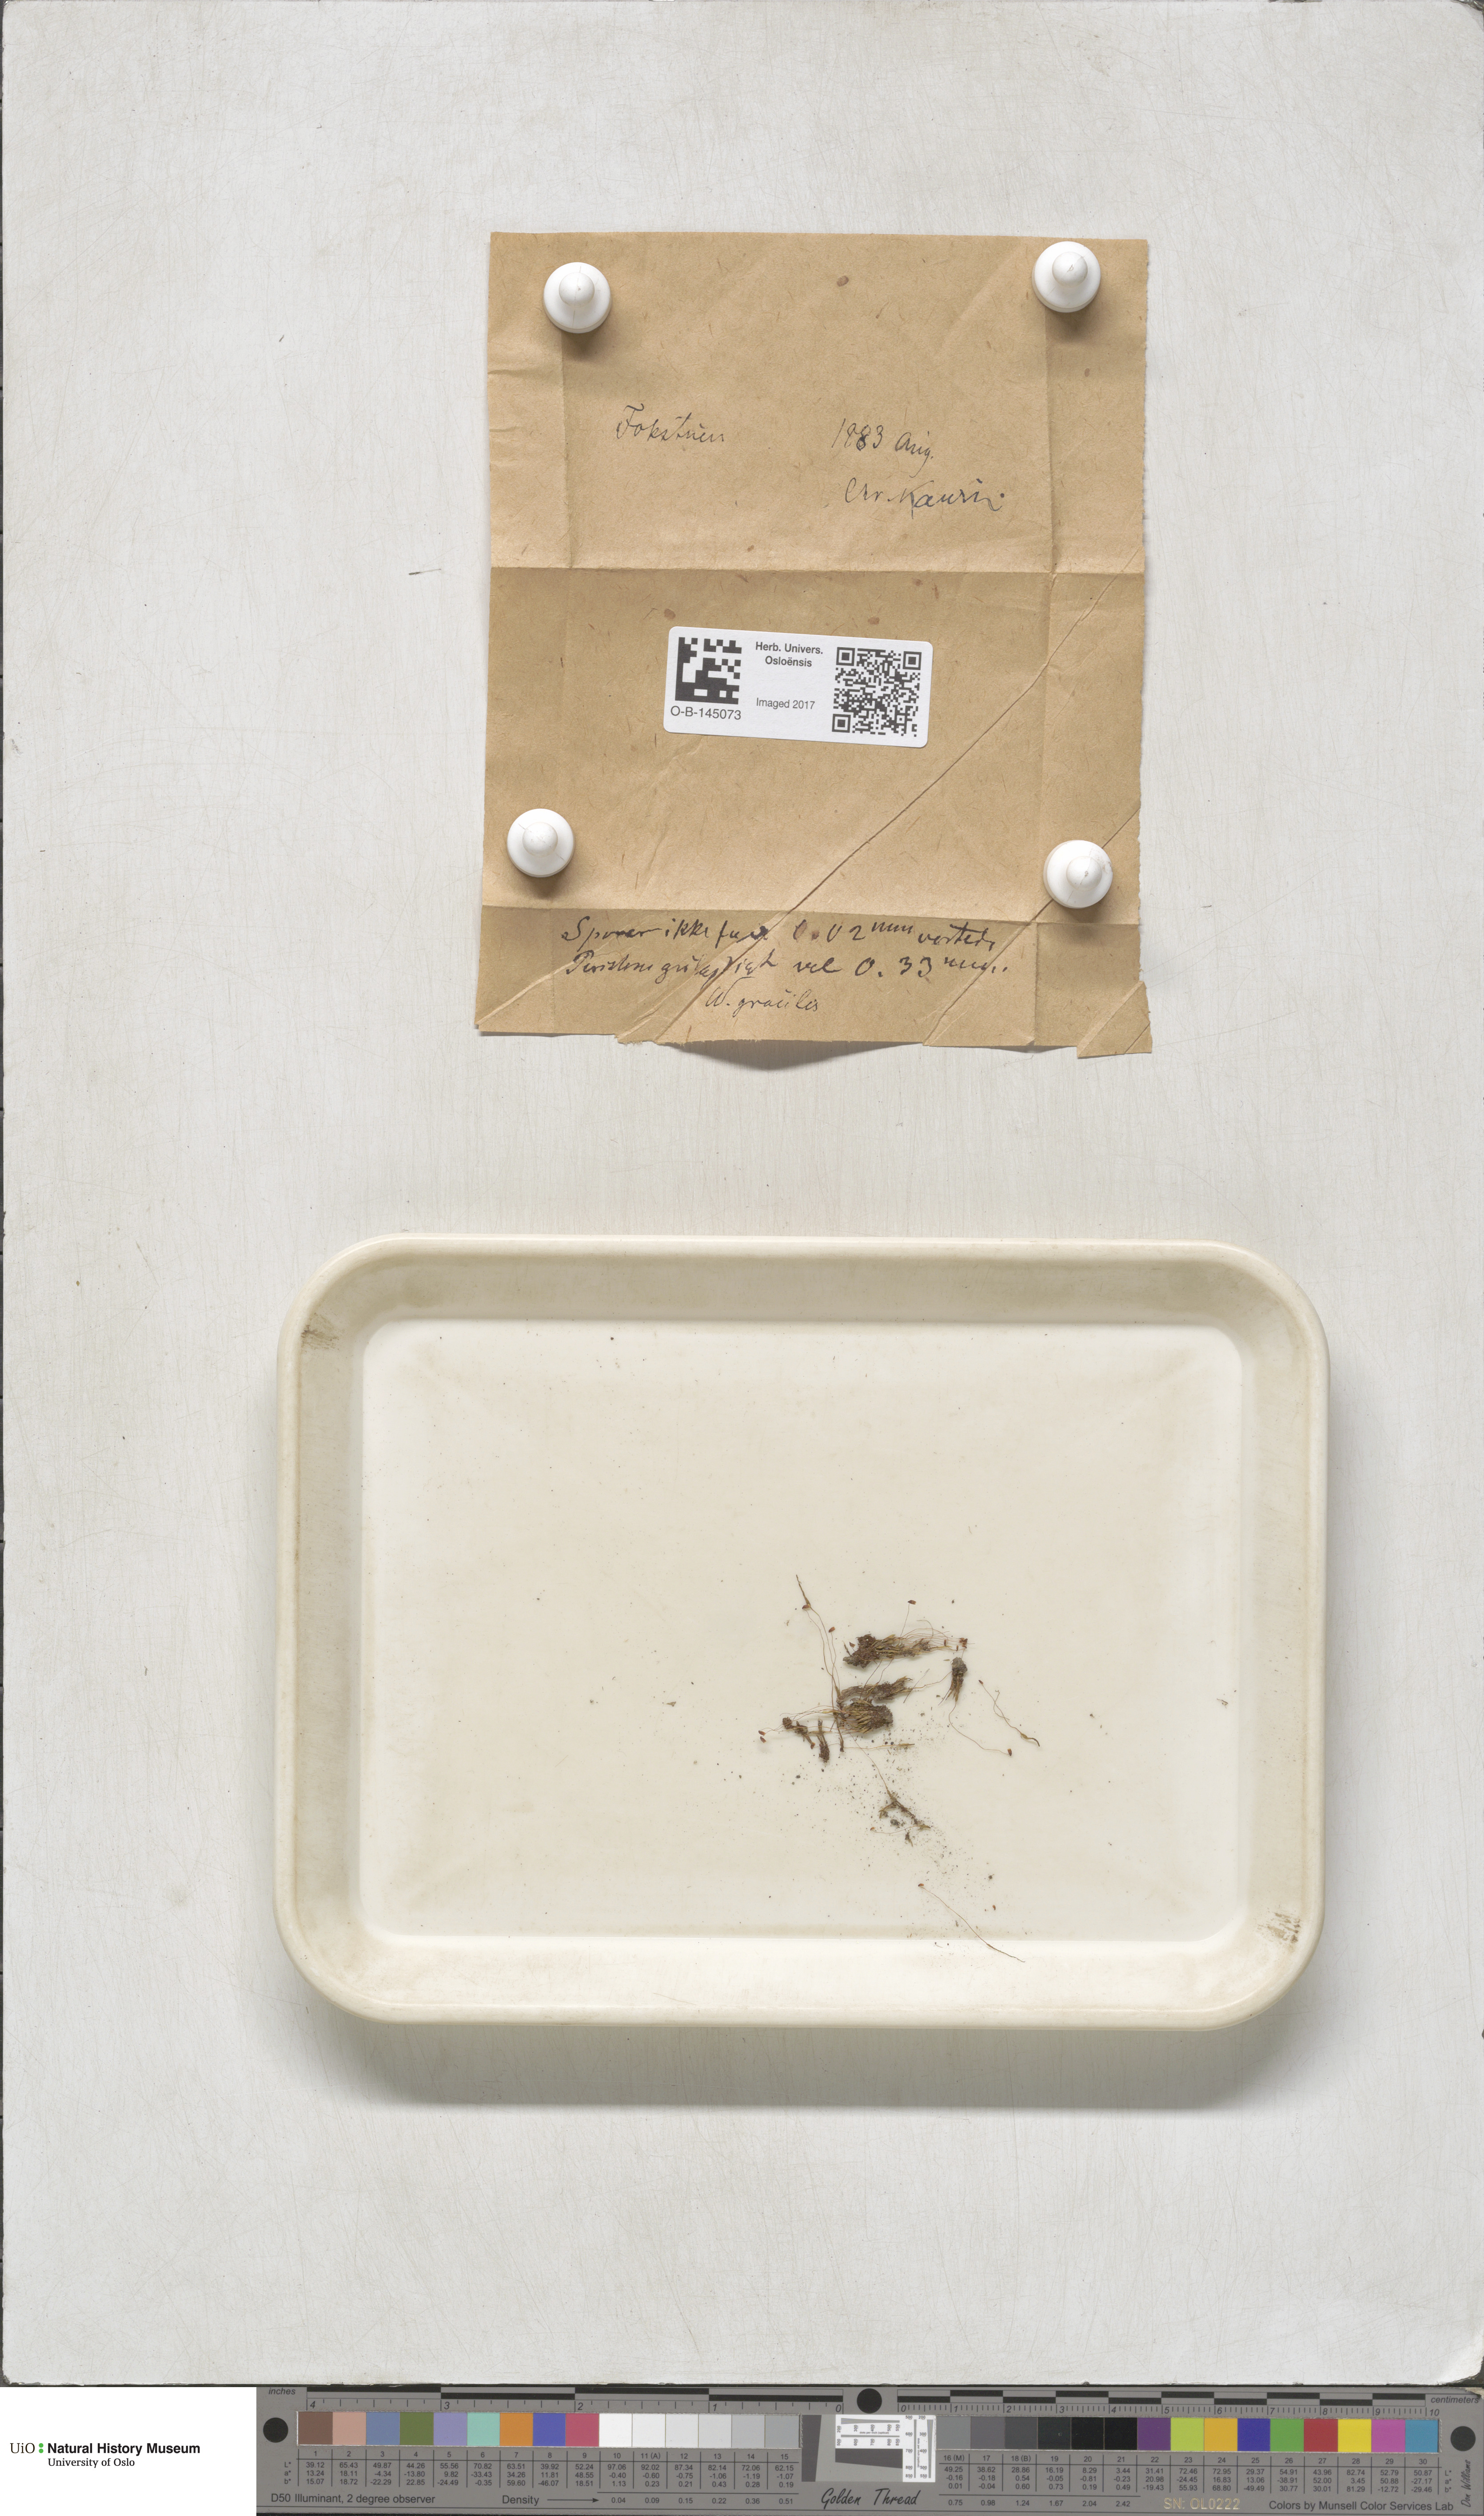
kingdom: Plantae
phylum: Bryophyta
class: Bryopsida
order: Bryales
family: Mniaceae
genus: Pohlia
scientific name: Pohlia filum
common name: Slender nodding moss
